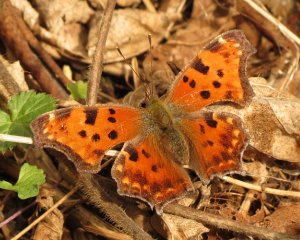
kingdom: Animalia
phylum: Arthropoda
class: Insecta
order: Lepidoptera
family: Nymphalidae
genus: Polygonia
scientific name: Polygonia comma
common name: Eastern Comma
